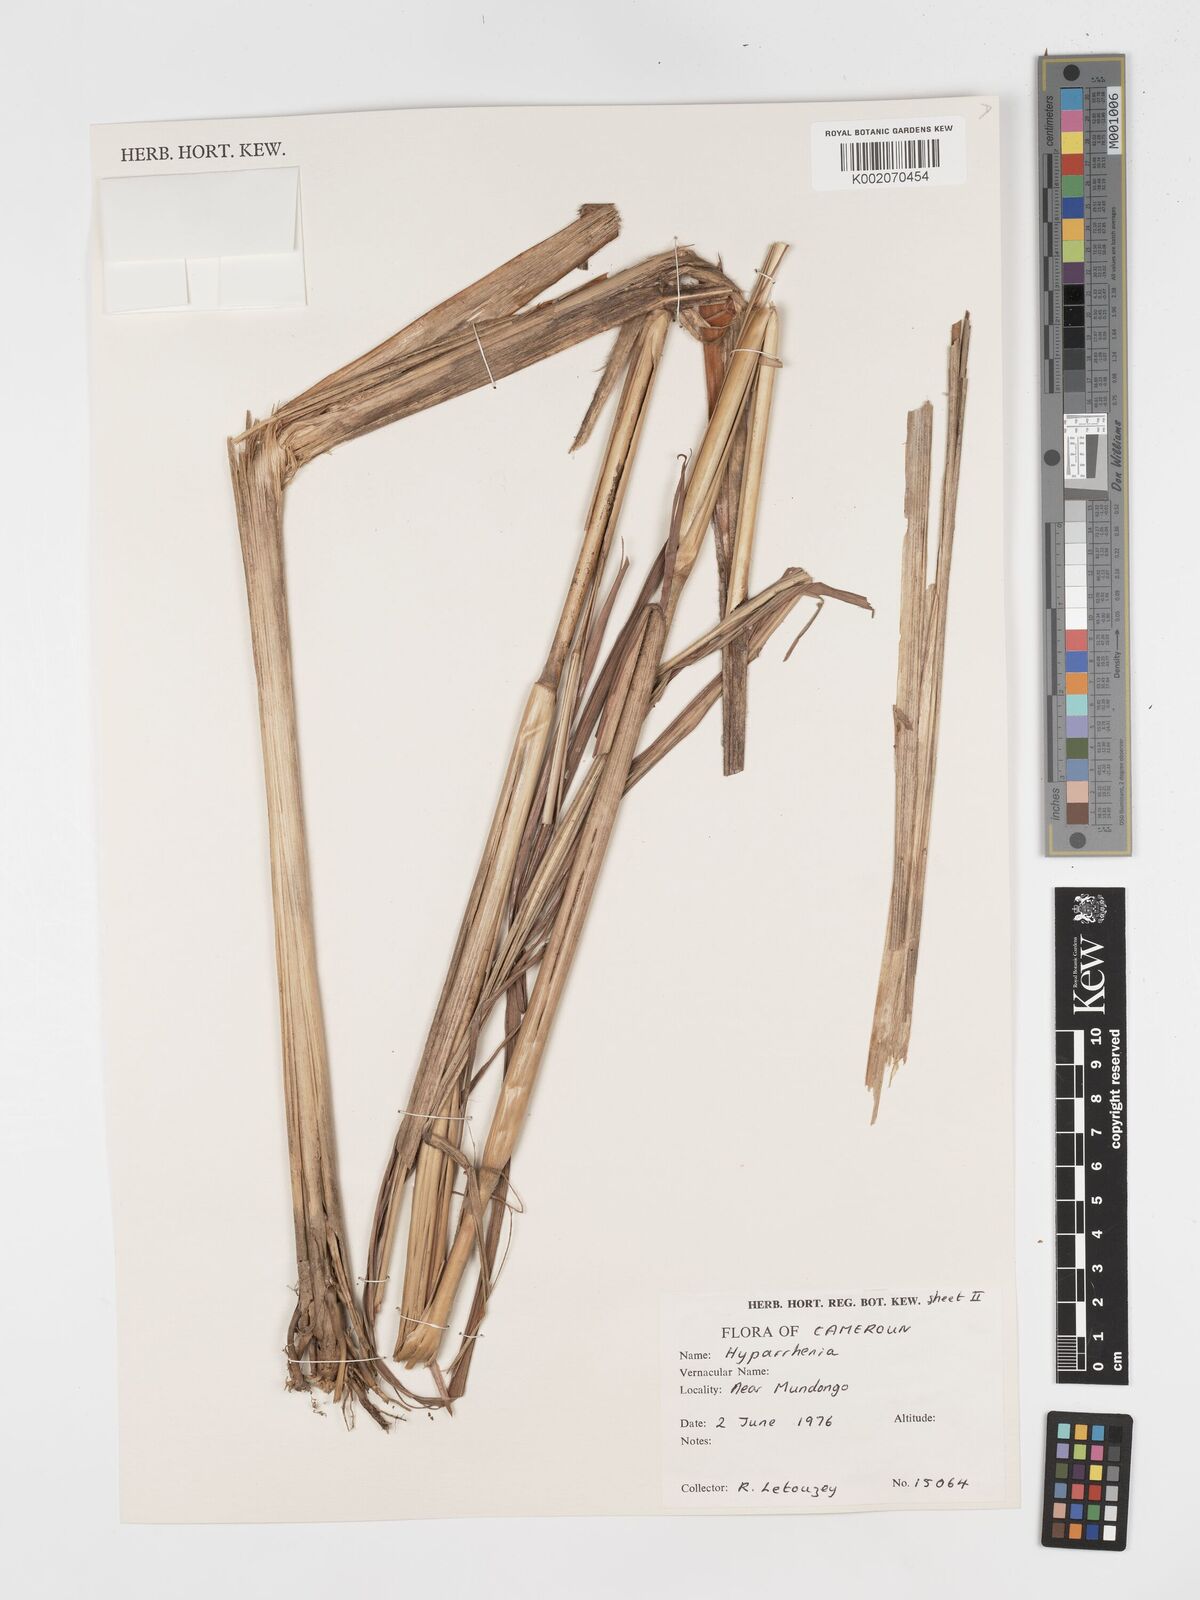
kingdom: Plantae
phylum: Tracheophyta
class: Liliopsida
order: Poales
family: Poaceae
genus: Hyparrhenia
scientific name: Hyparrhenia diplandra
